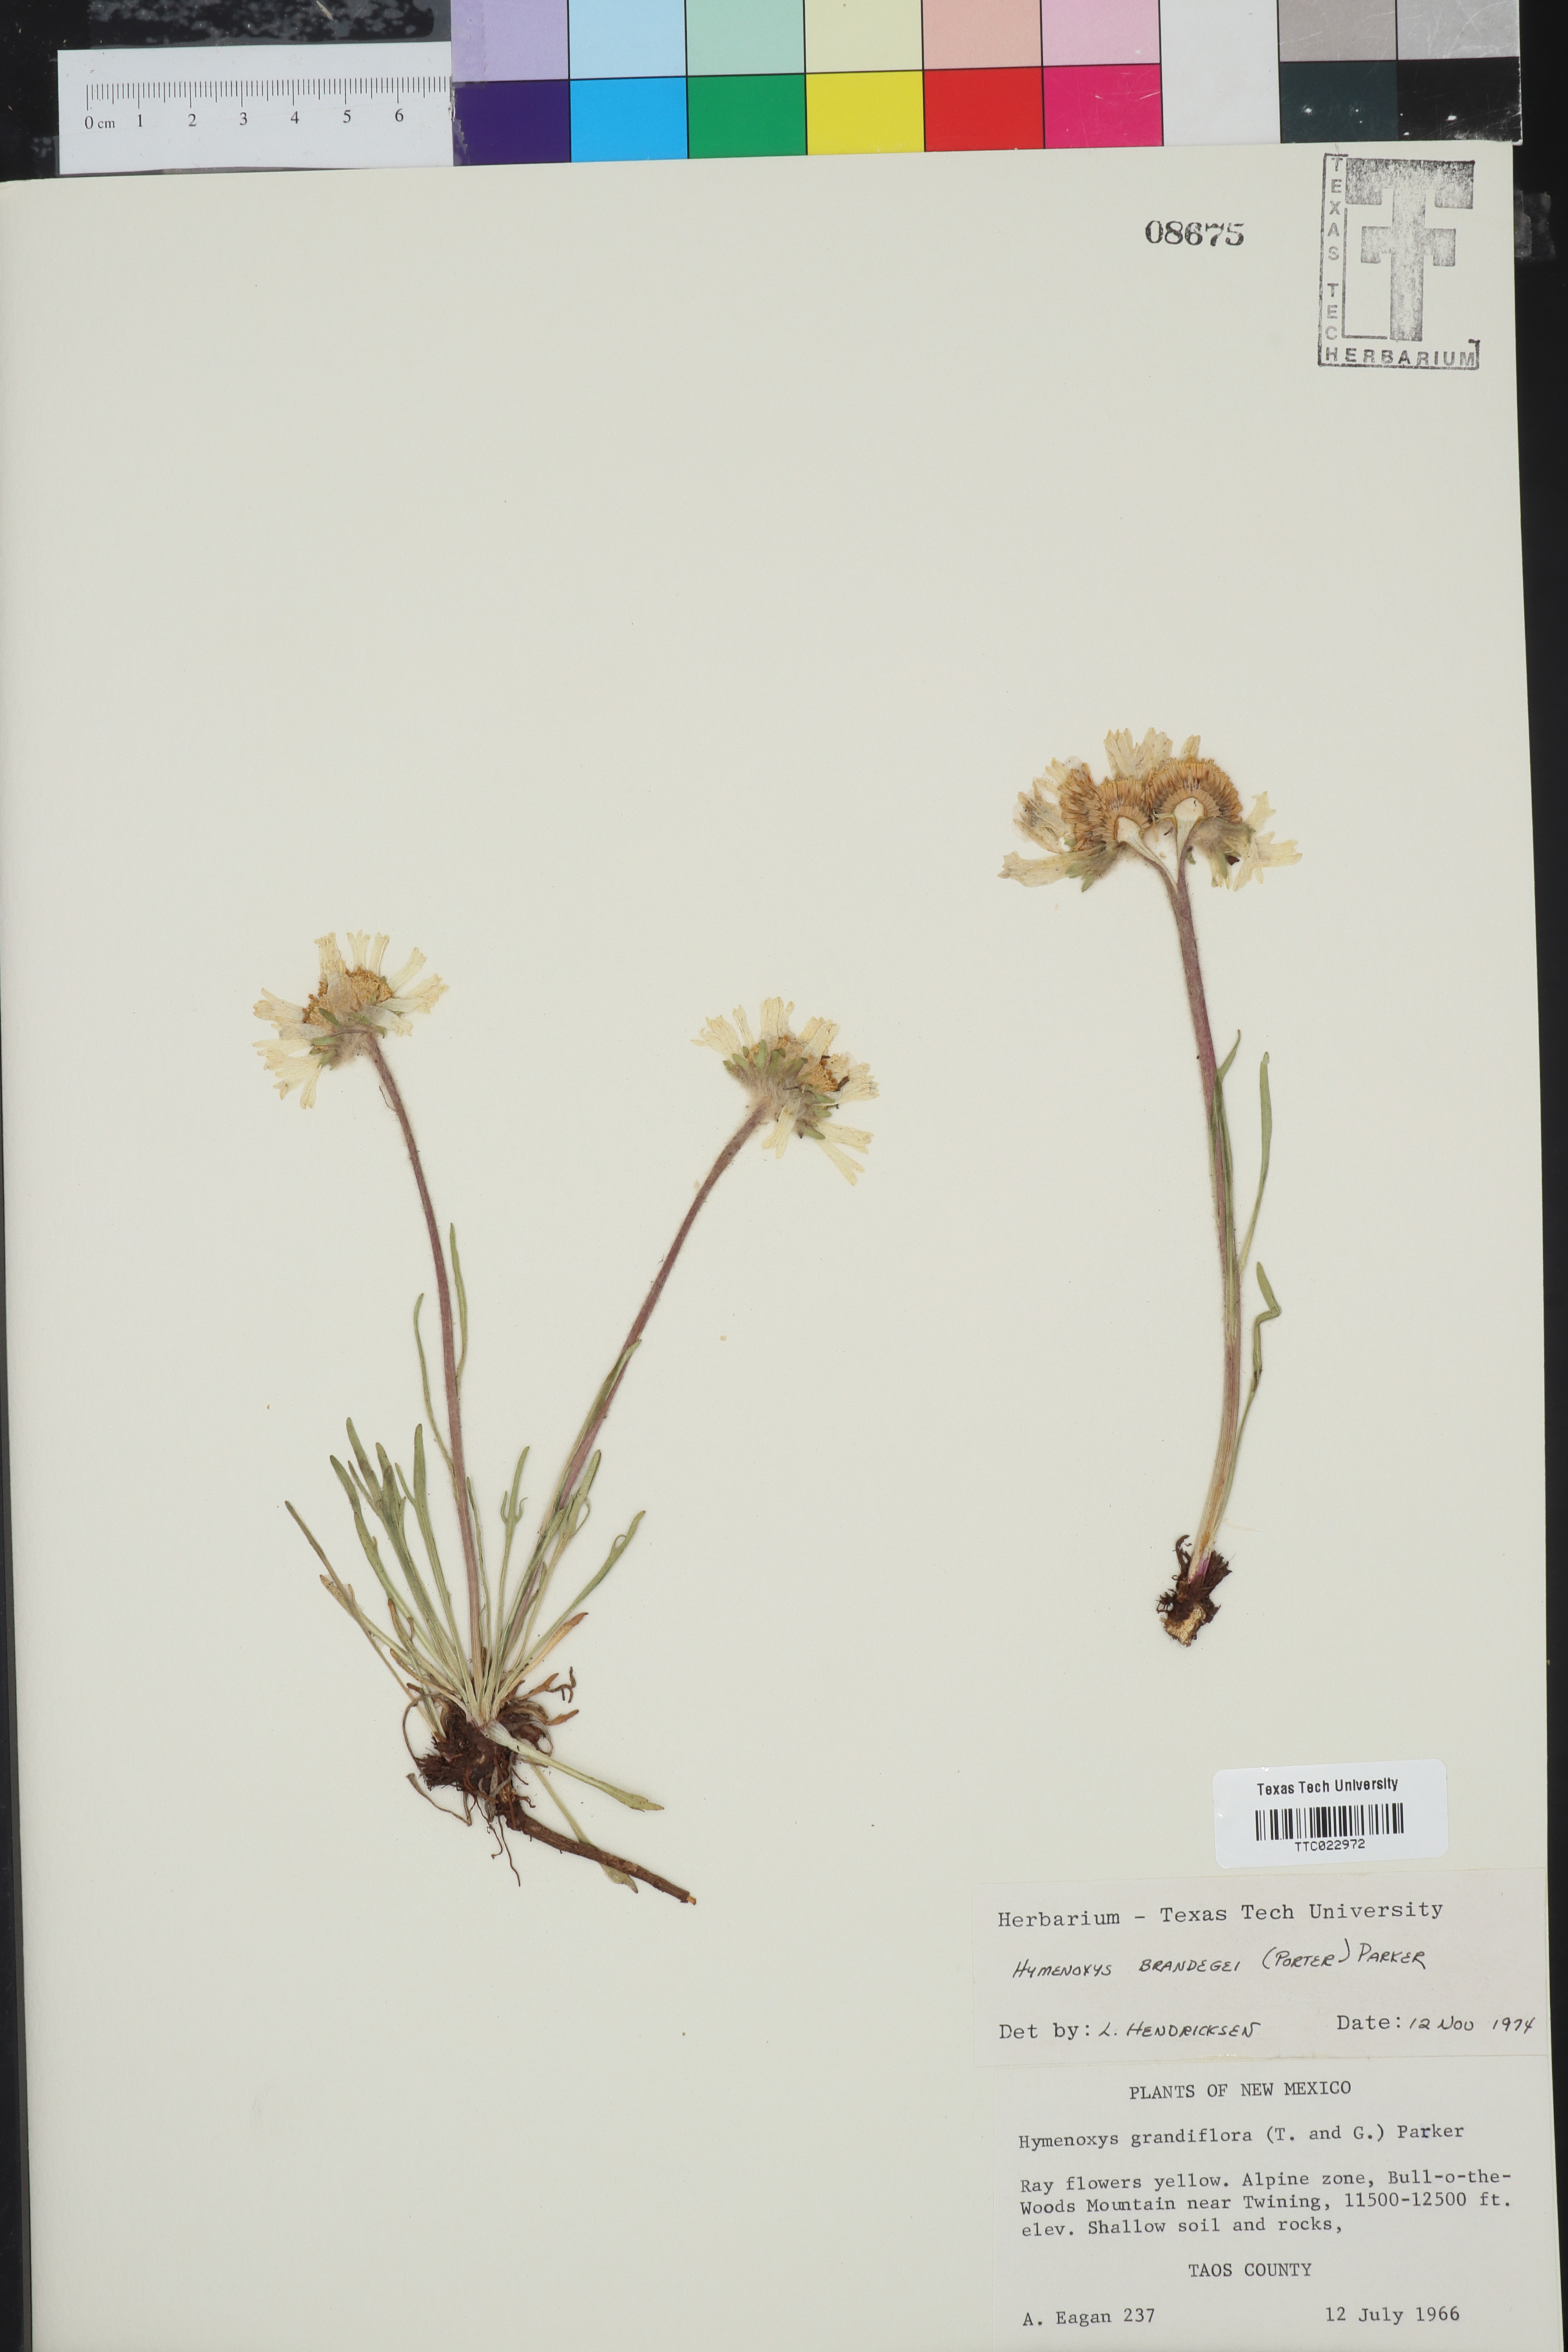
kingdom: Plantae
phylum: Tracheophyta
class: Magnoliopsida
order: Asterales
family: Asteraceae
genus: Hymenoxys
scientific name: Hymenoxys brandegeei
